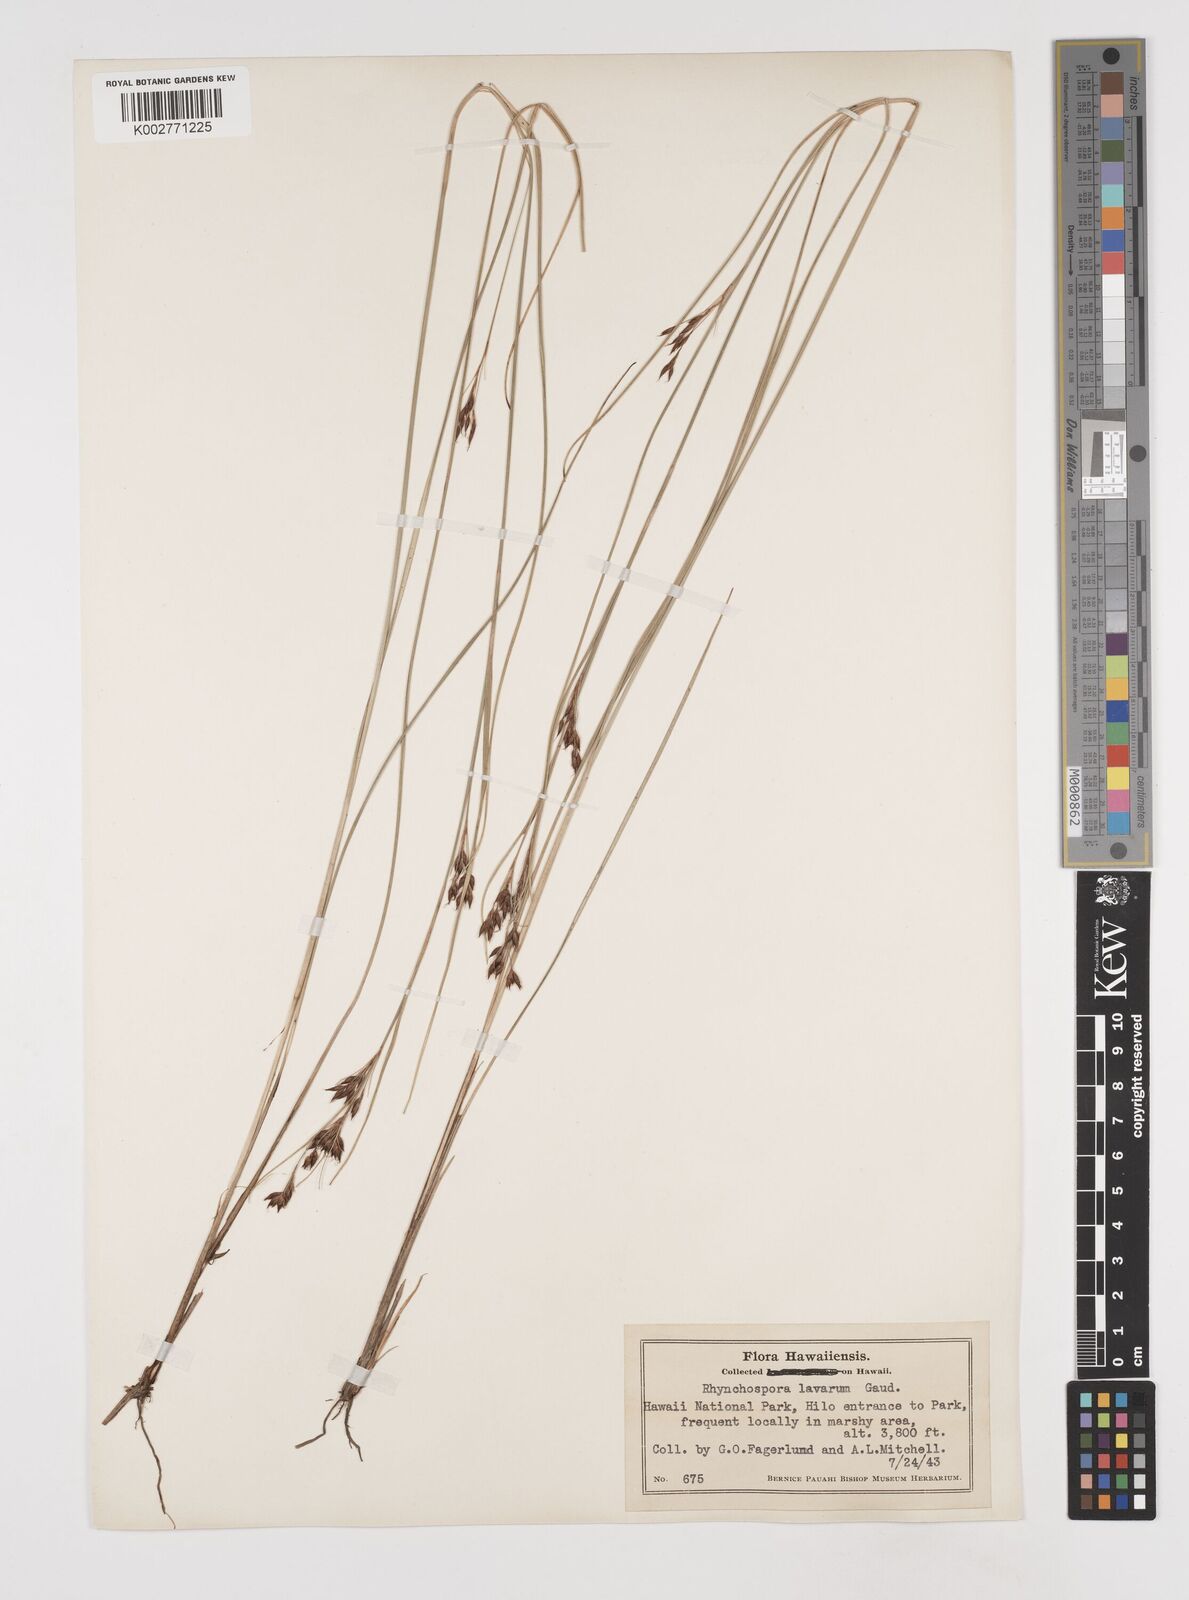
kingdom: Plantae
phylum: Tracheophyta
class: Liliopsida
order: Poales
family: Cyperaceae
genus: Rhynchospora
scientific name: Rhynchospora rugosa
